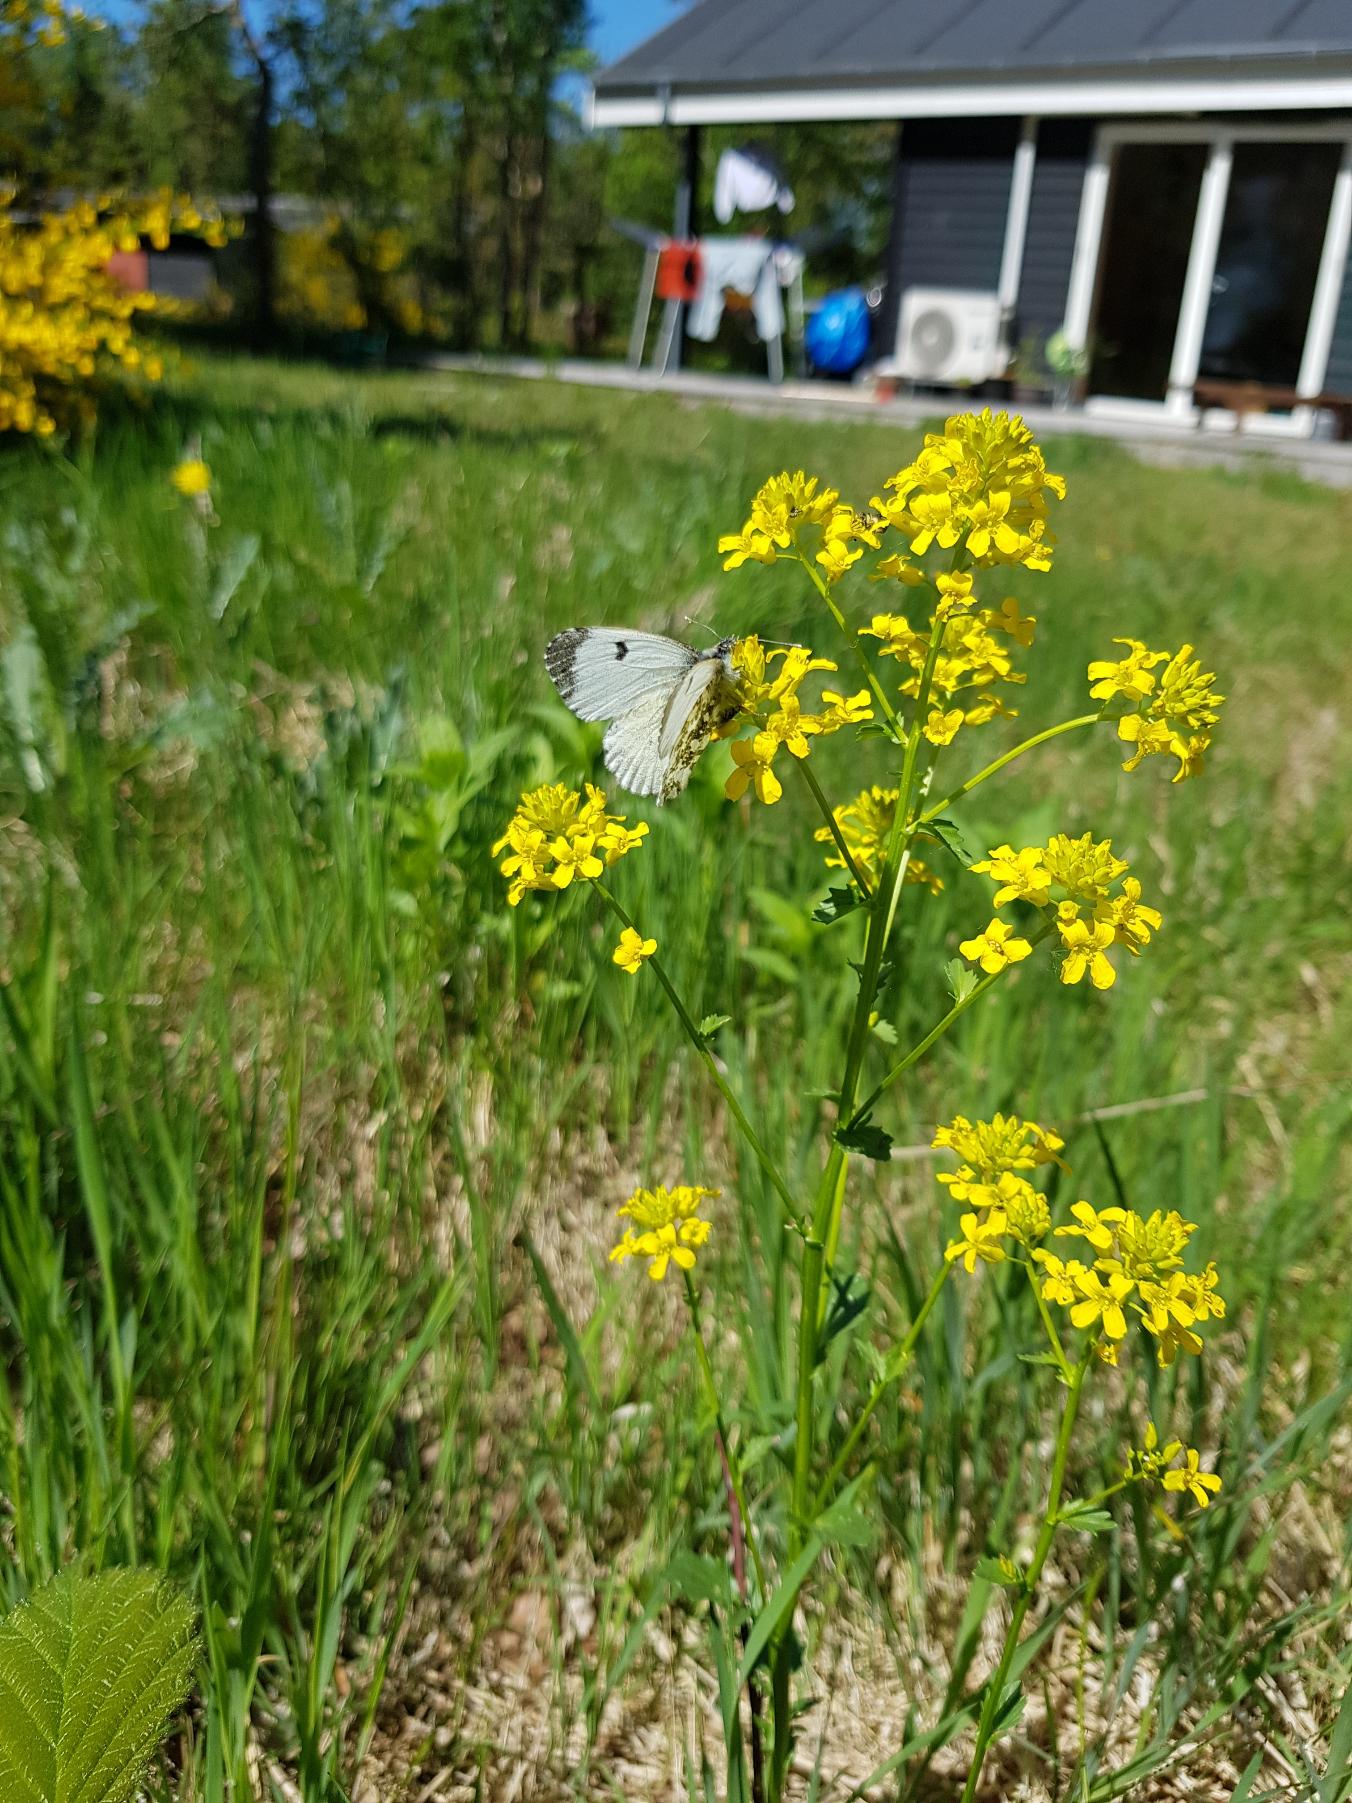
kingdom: Animalia
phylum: Arthropoda
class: Insecta
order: Lepidoptera
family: Pieridae
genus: Anthocharis
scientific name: Anthocharis cardamines
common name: Aurora
